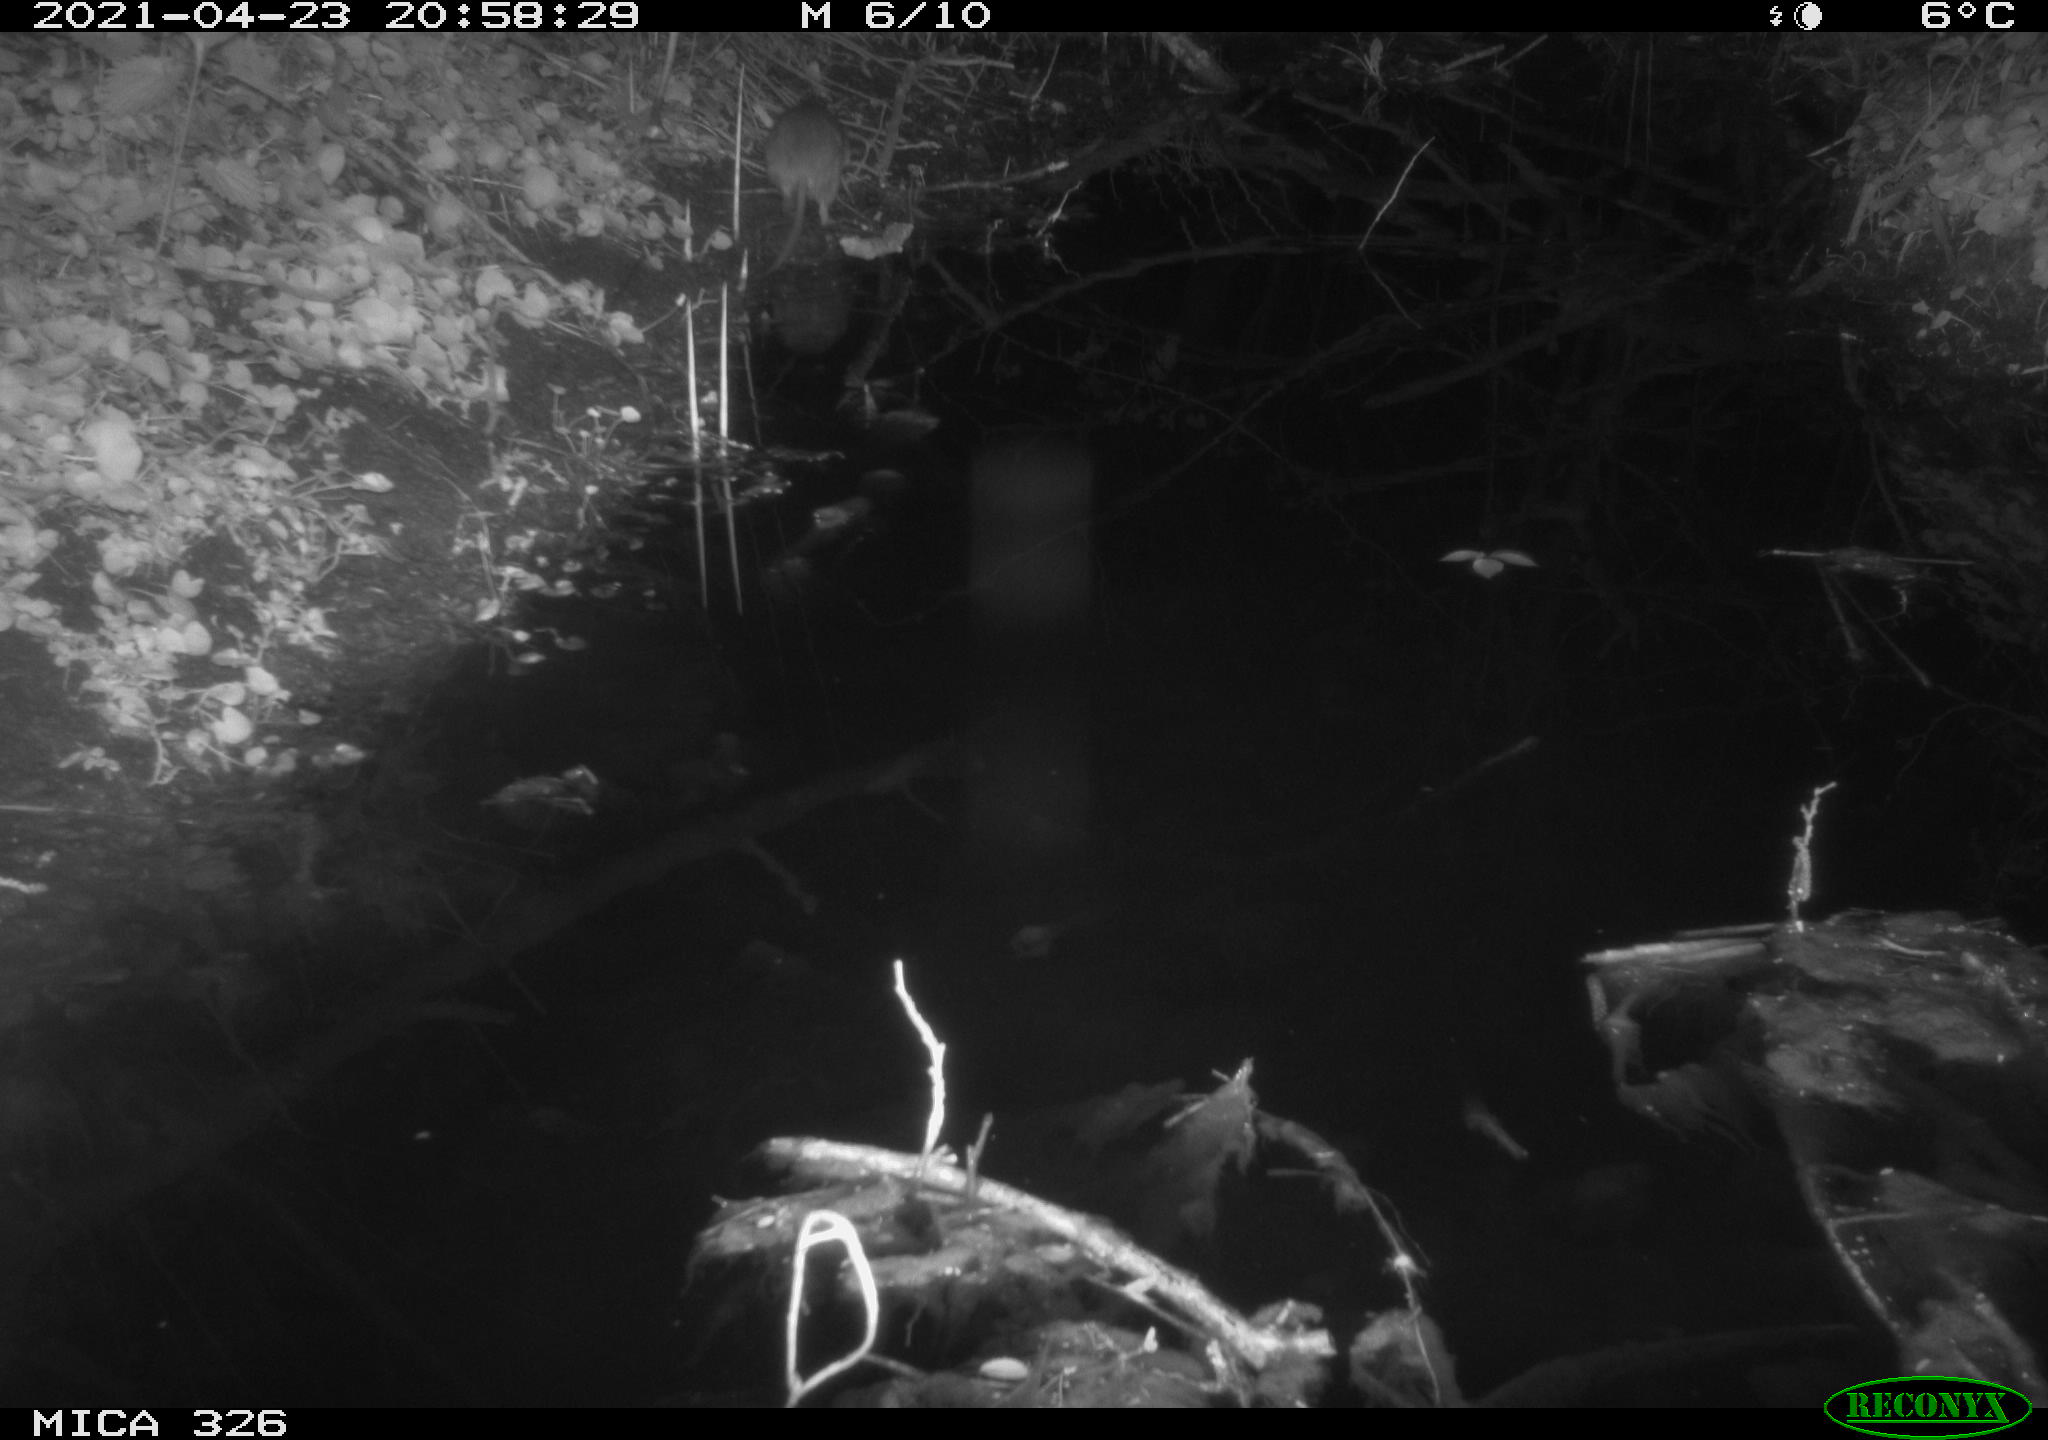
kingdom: Animalia
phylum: Chordata
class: Mammalia
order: Rodentia
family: Muridae
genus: Rattus
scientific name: Rattus norvegicus
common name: Brown rat
